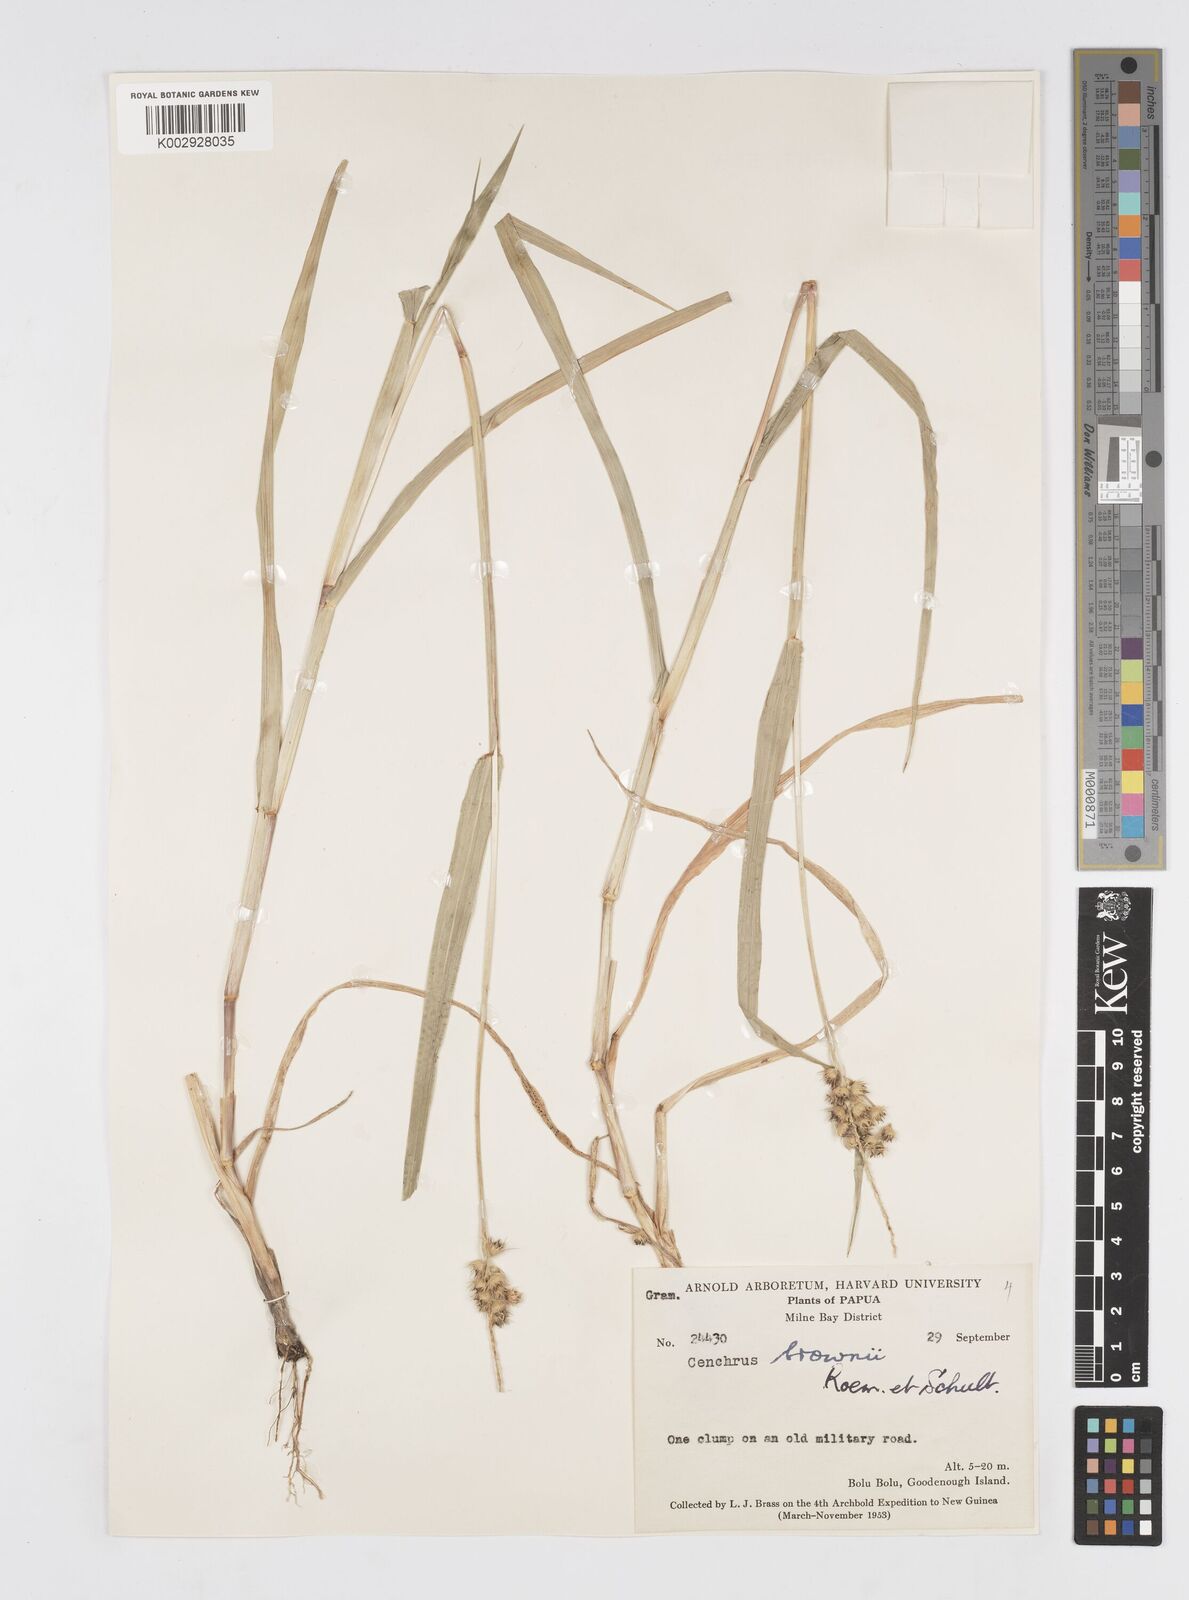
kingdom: Plantae
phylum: Tracheophyta
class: Liliopsida
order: Poales
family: Poaceae
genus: Cenchrus
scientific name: Cenchrus brownii
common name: Slim-bristle sandbur
